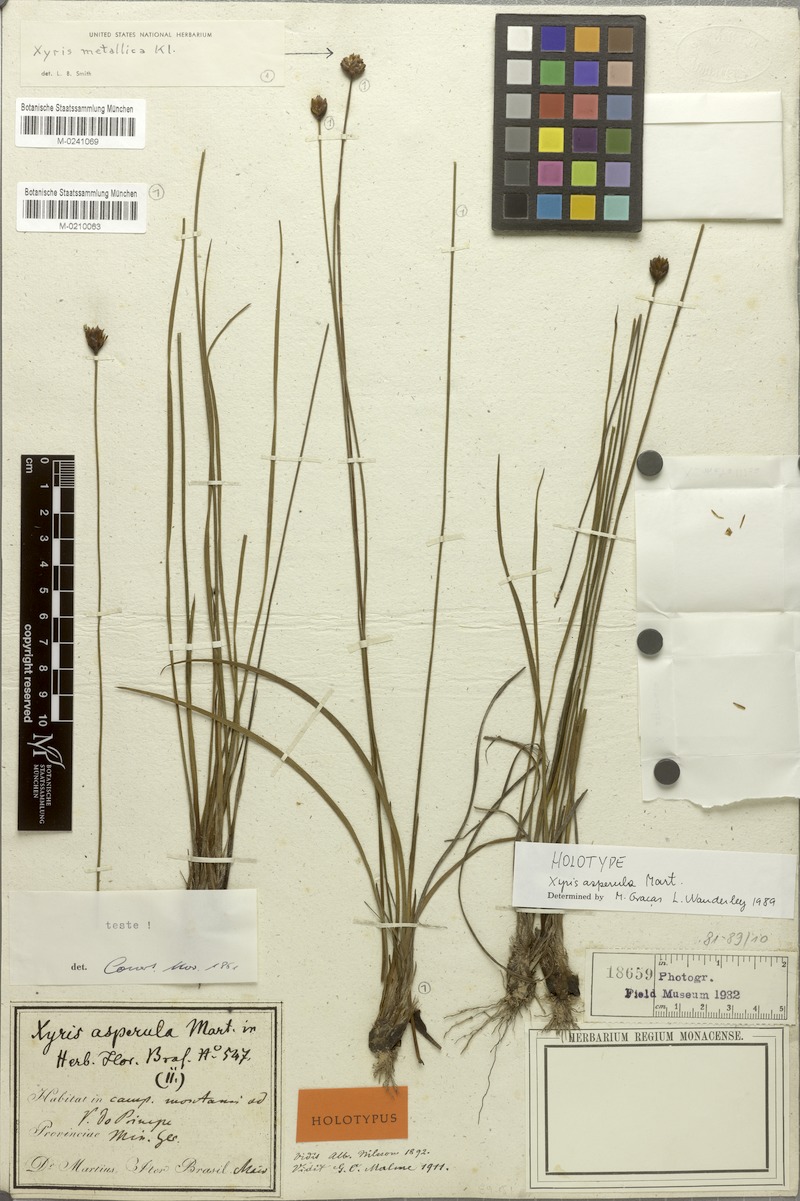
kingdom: Plantae
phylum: Tracheophyta
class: Liliopsida
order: Poales
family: Xyridaceae
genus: Xyris
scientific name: Xyris metallica
